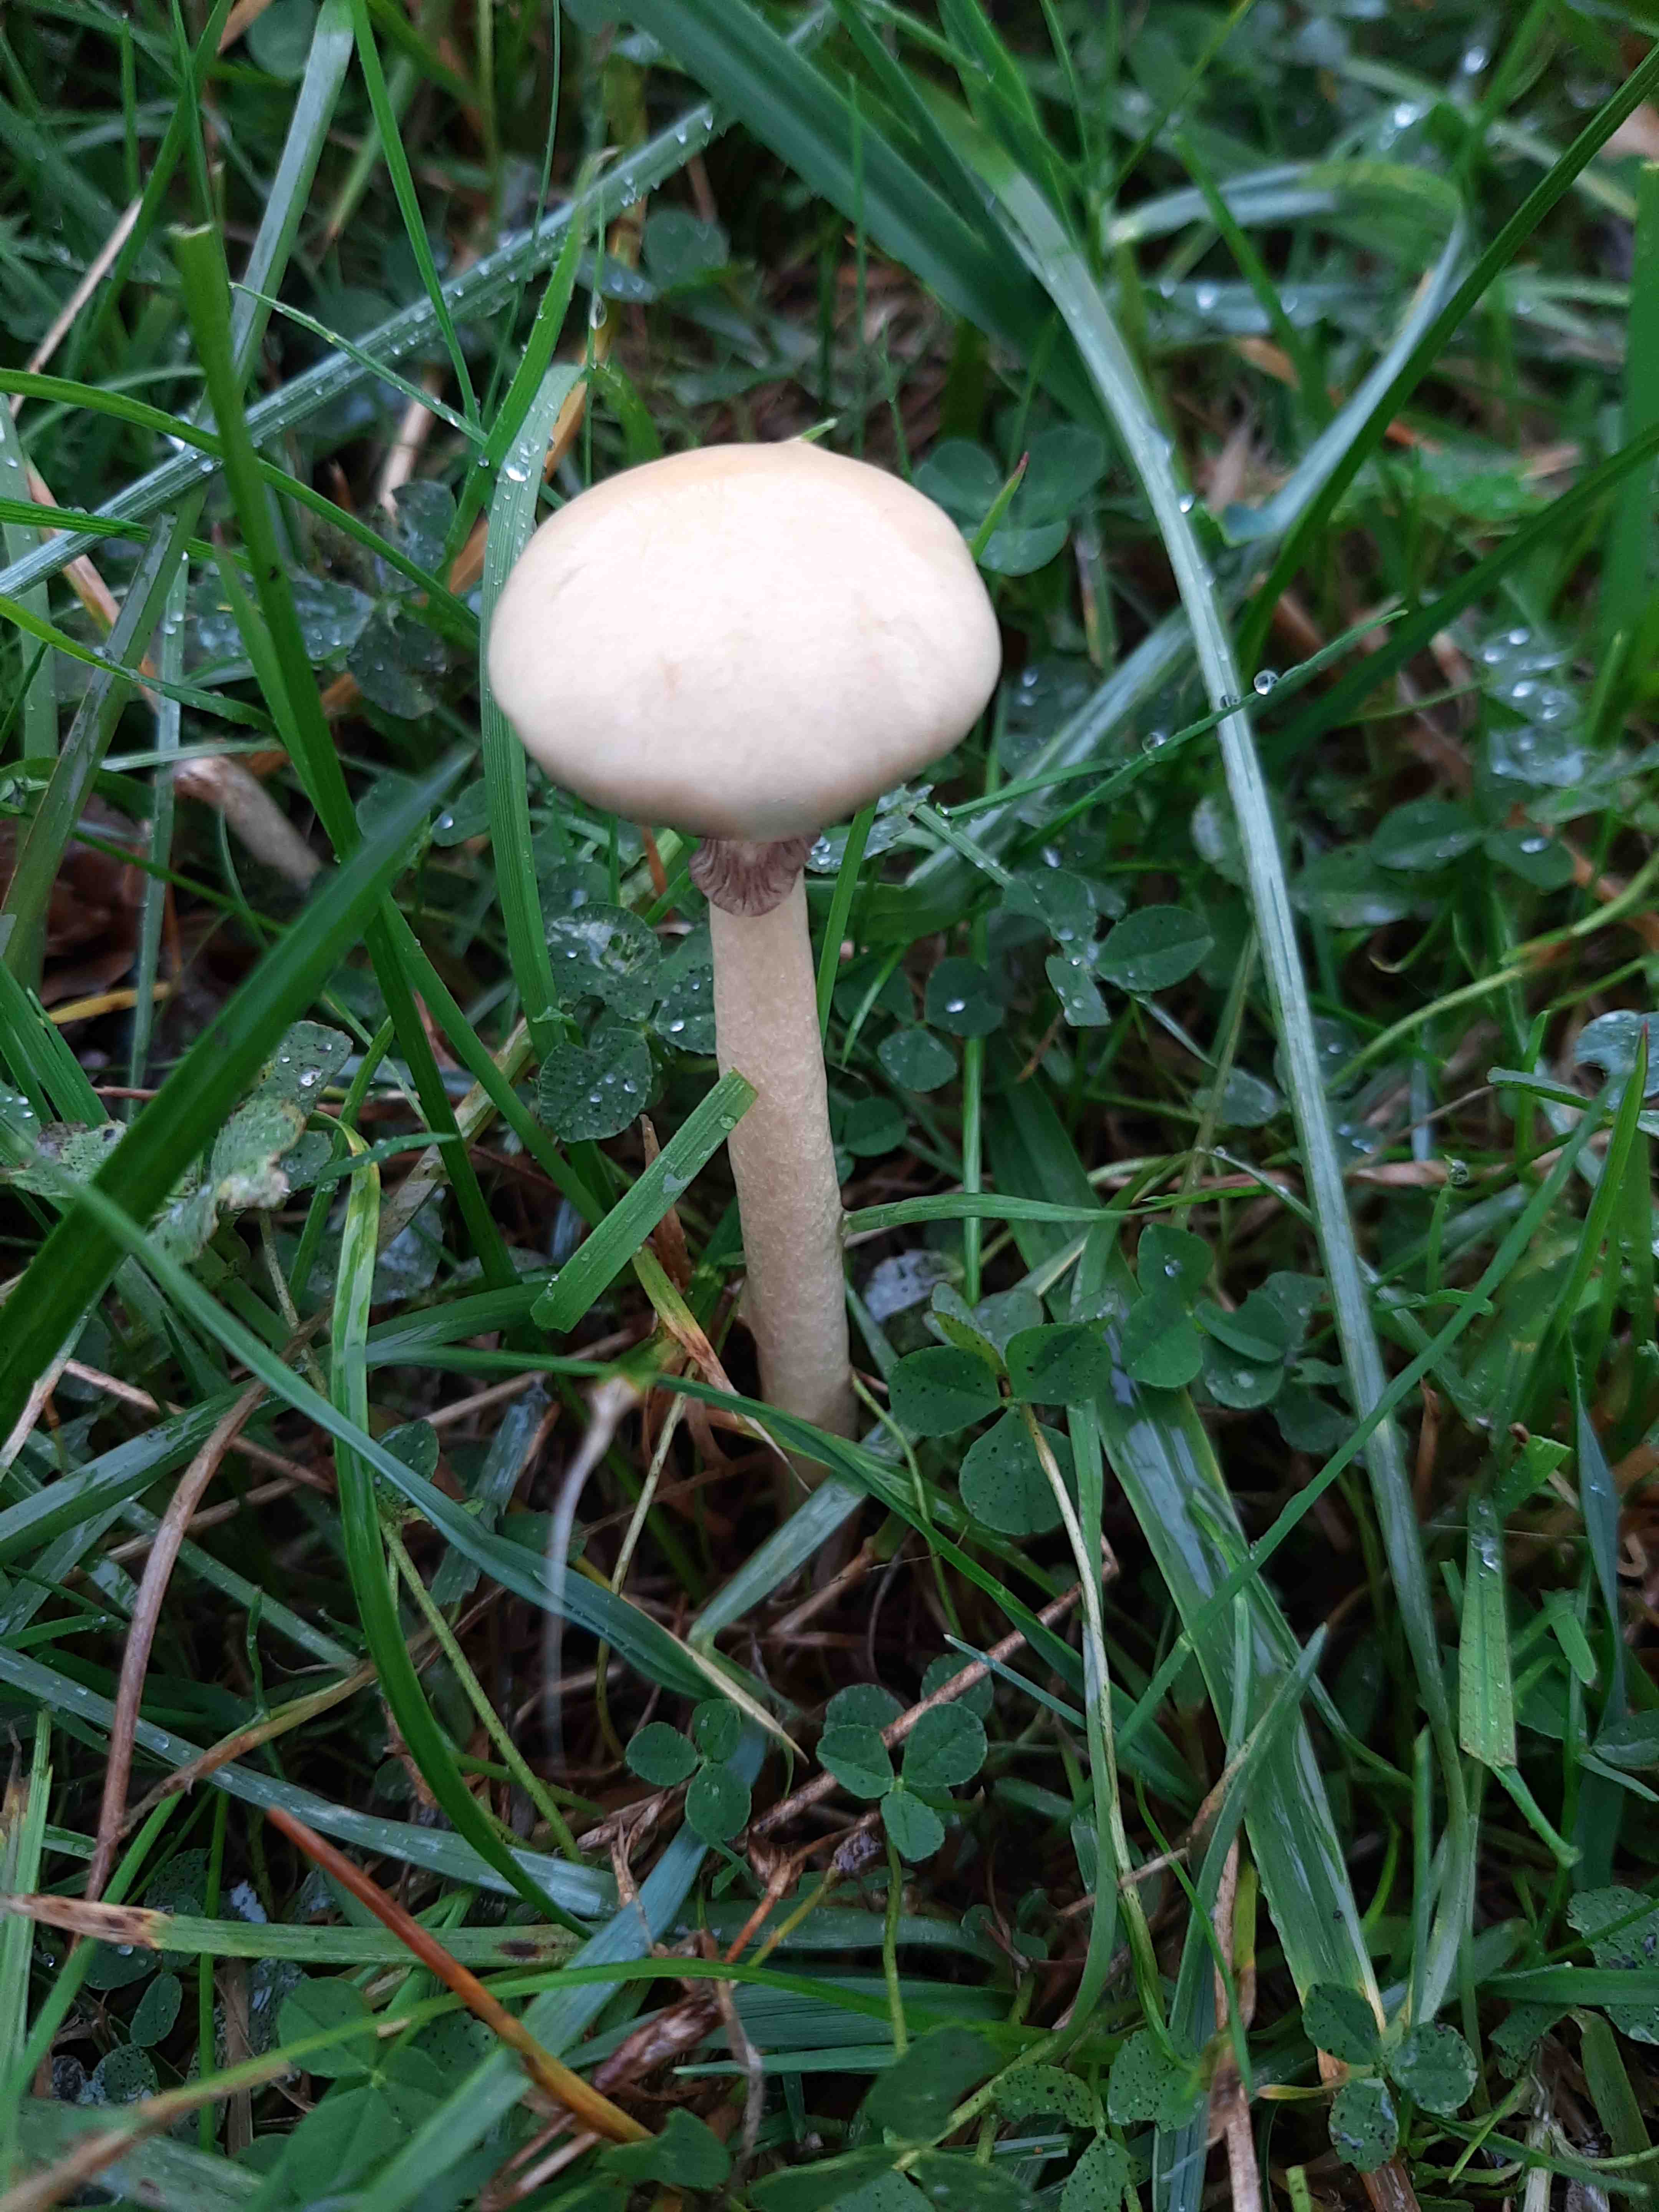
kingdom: Fungi
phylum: Basidiomycota
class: Agaricomycetes
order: Agaricales
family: Strophariaceae
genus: Protostropharia
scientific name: Protostropharia semiglobata
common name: halvkugleformet bredblad
